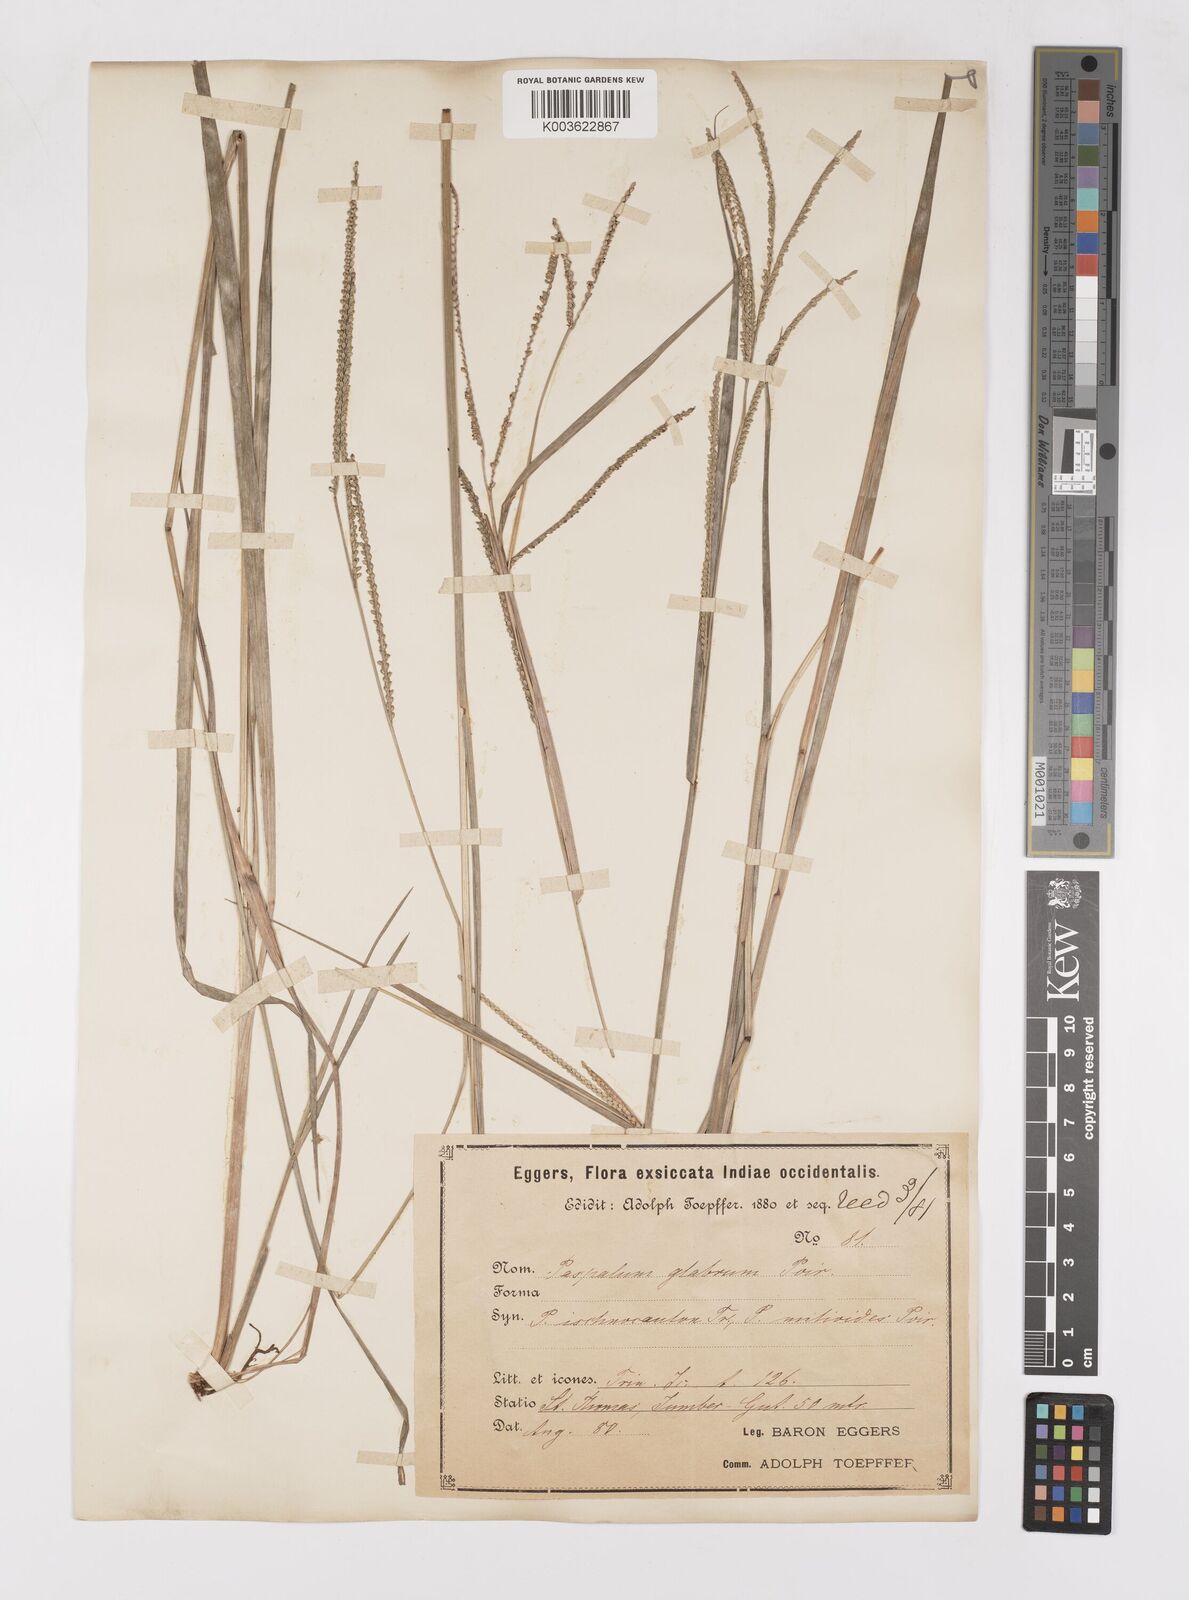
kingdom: Plantae
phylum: Tracheophyta
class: Liliopsida
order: Poales
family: Poaceae
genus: Paspalum
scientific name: Paspalum laxum
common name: Coconut paspalum
